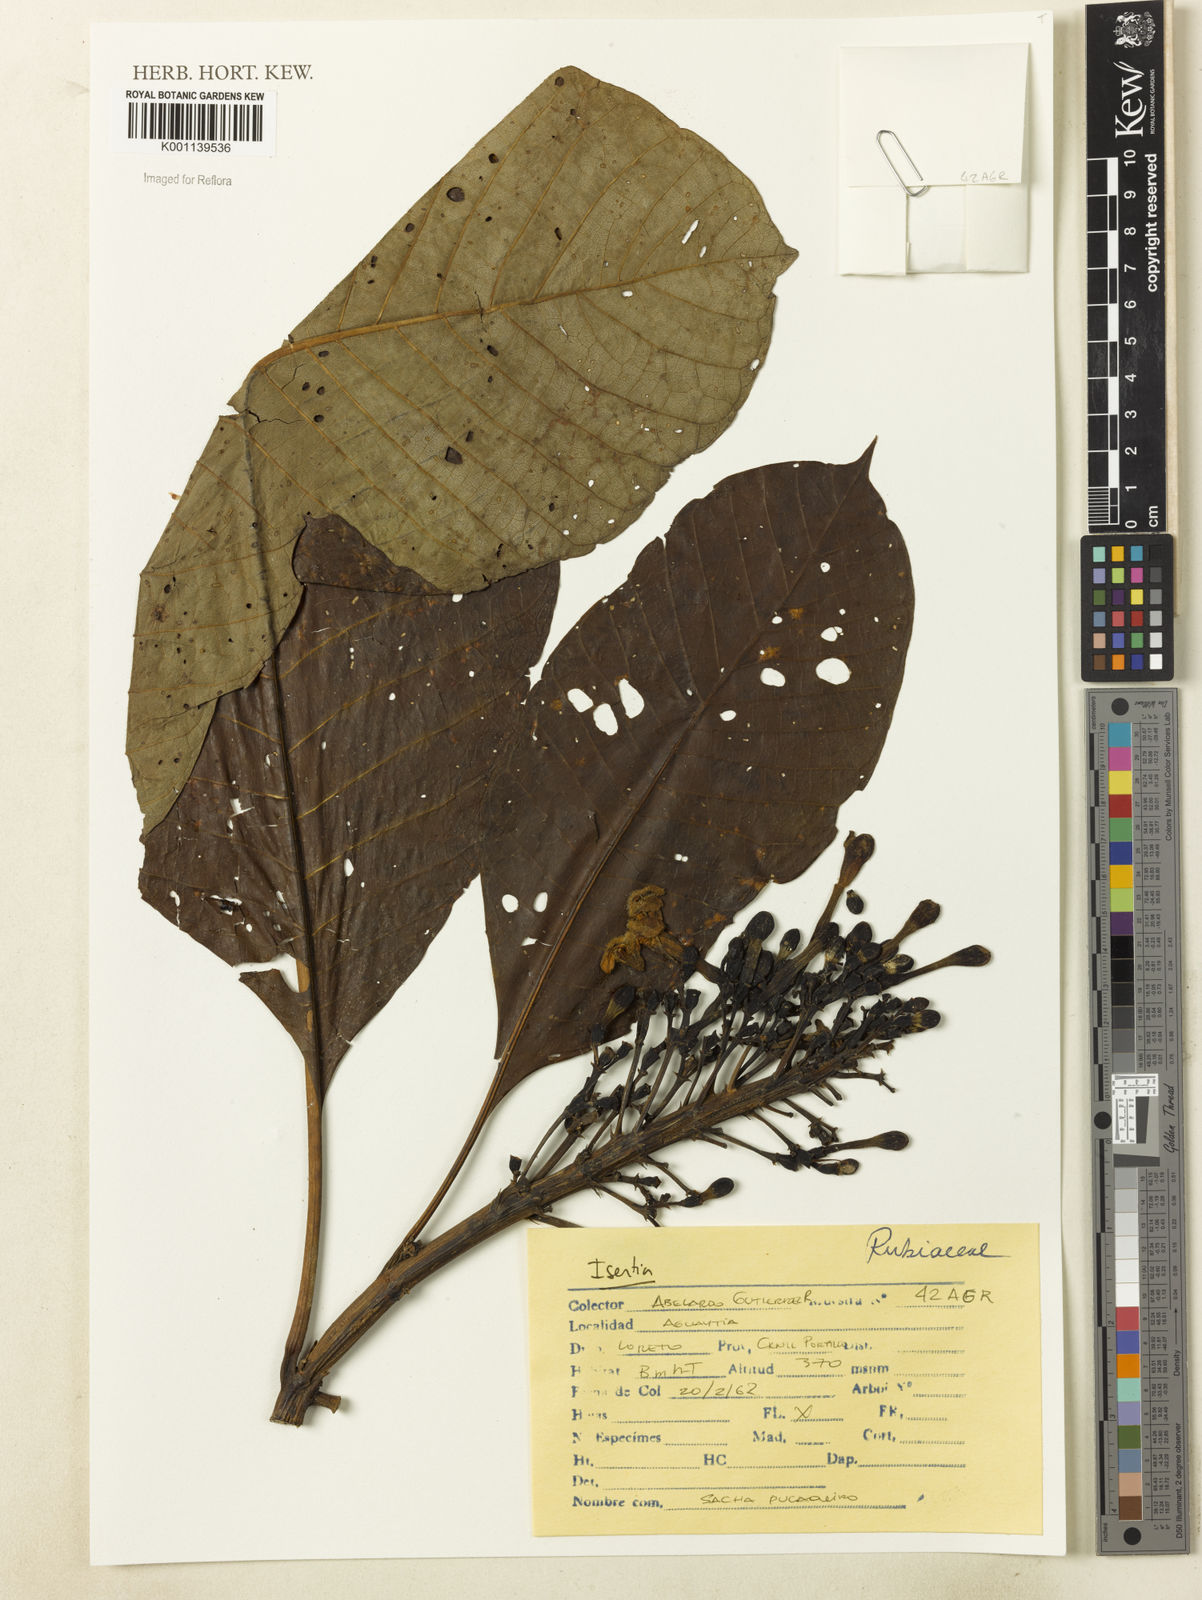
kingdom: Plantae
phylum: Tracheophyta
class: Magnoliopsida
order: Gentianales
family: Rubiaceae
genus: Isertia
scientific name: Isertia
